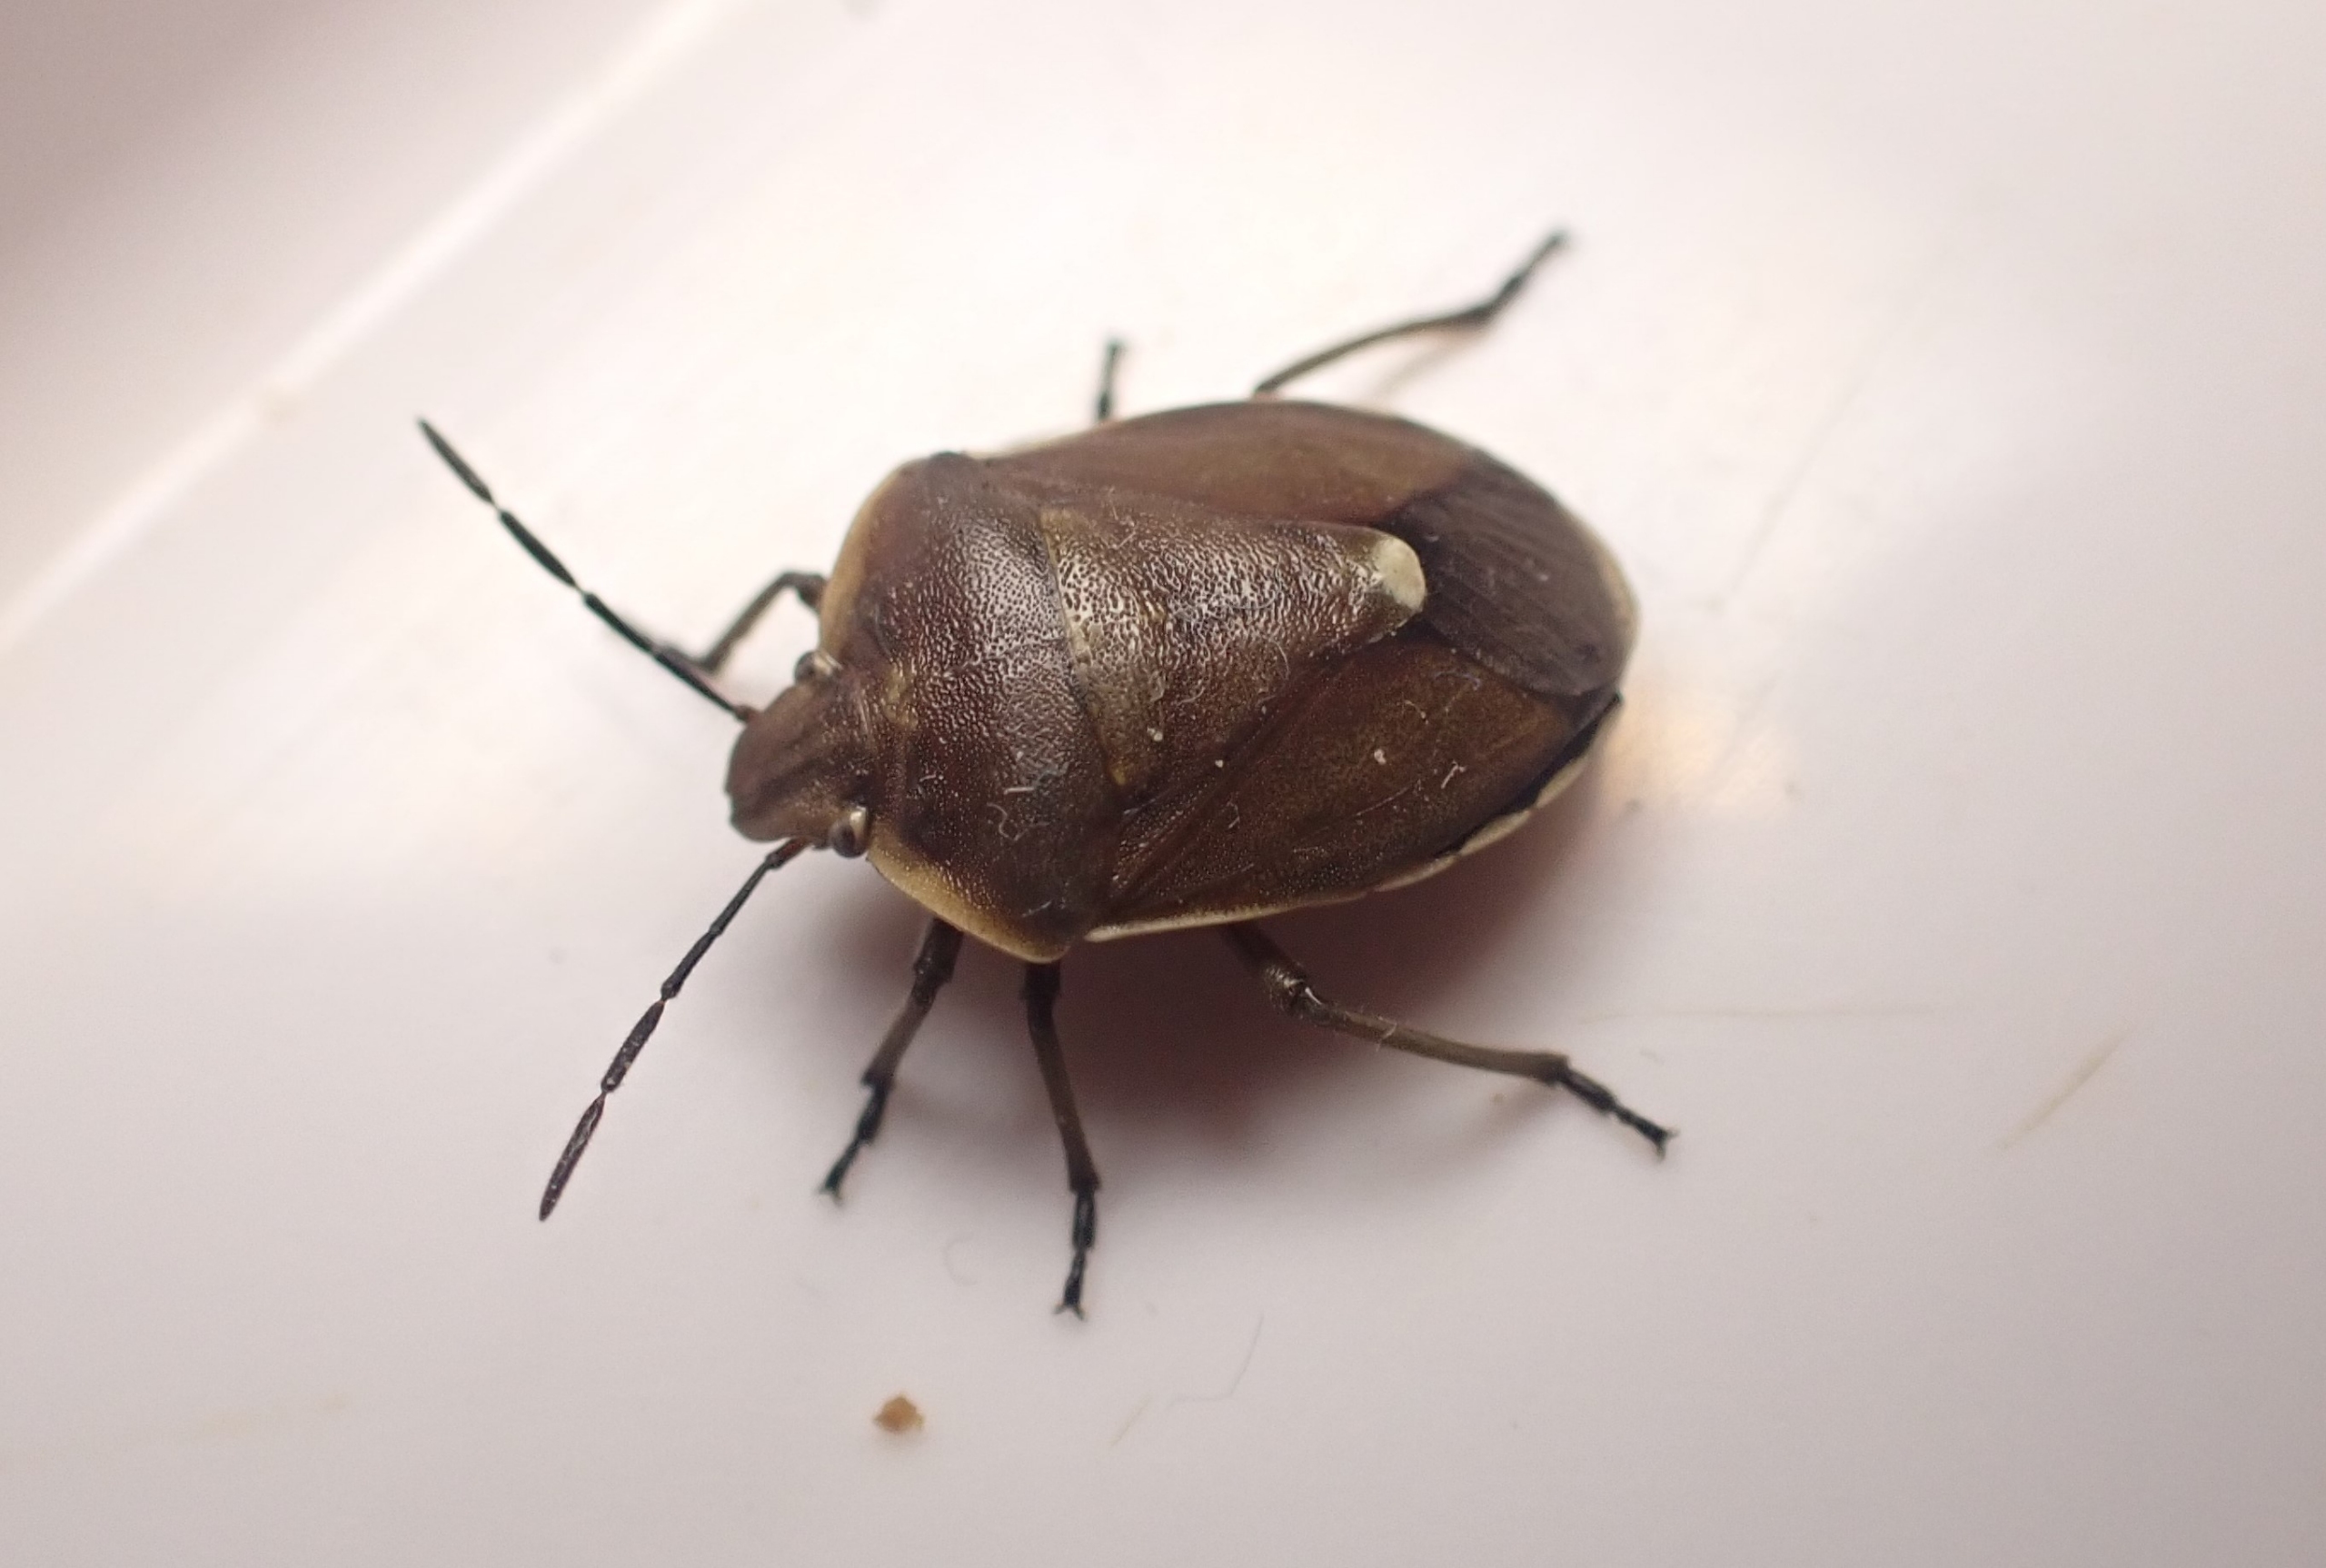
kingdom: Animalia
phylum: Arthropoda
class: Insecta
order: Hemiptera
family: Pentatomidae
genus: Chlorochroa
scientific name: Chlorochroa pinicola
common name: Fyrrebredtæge
